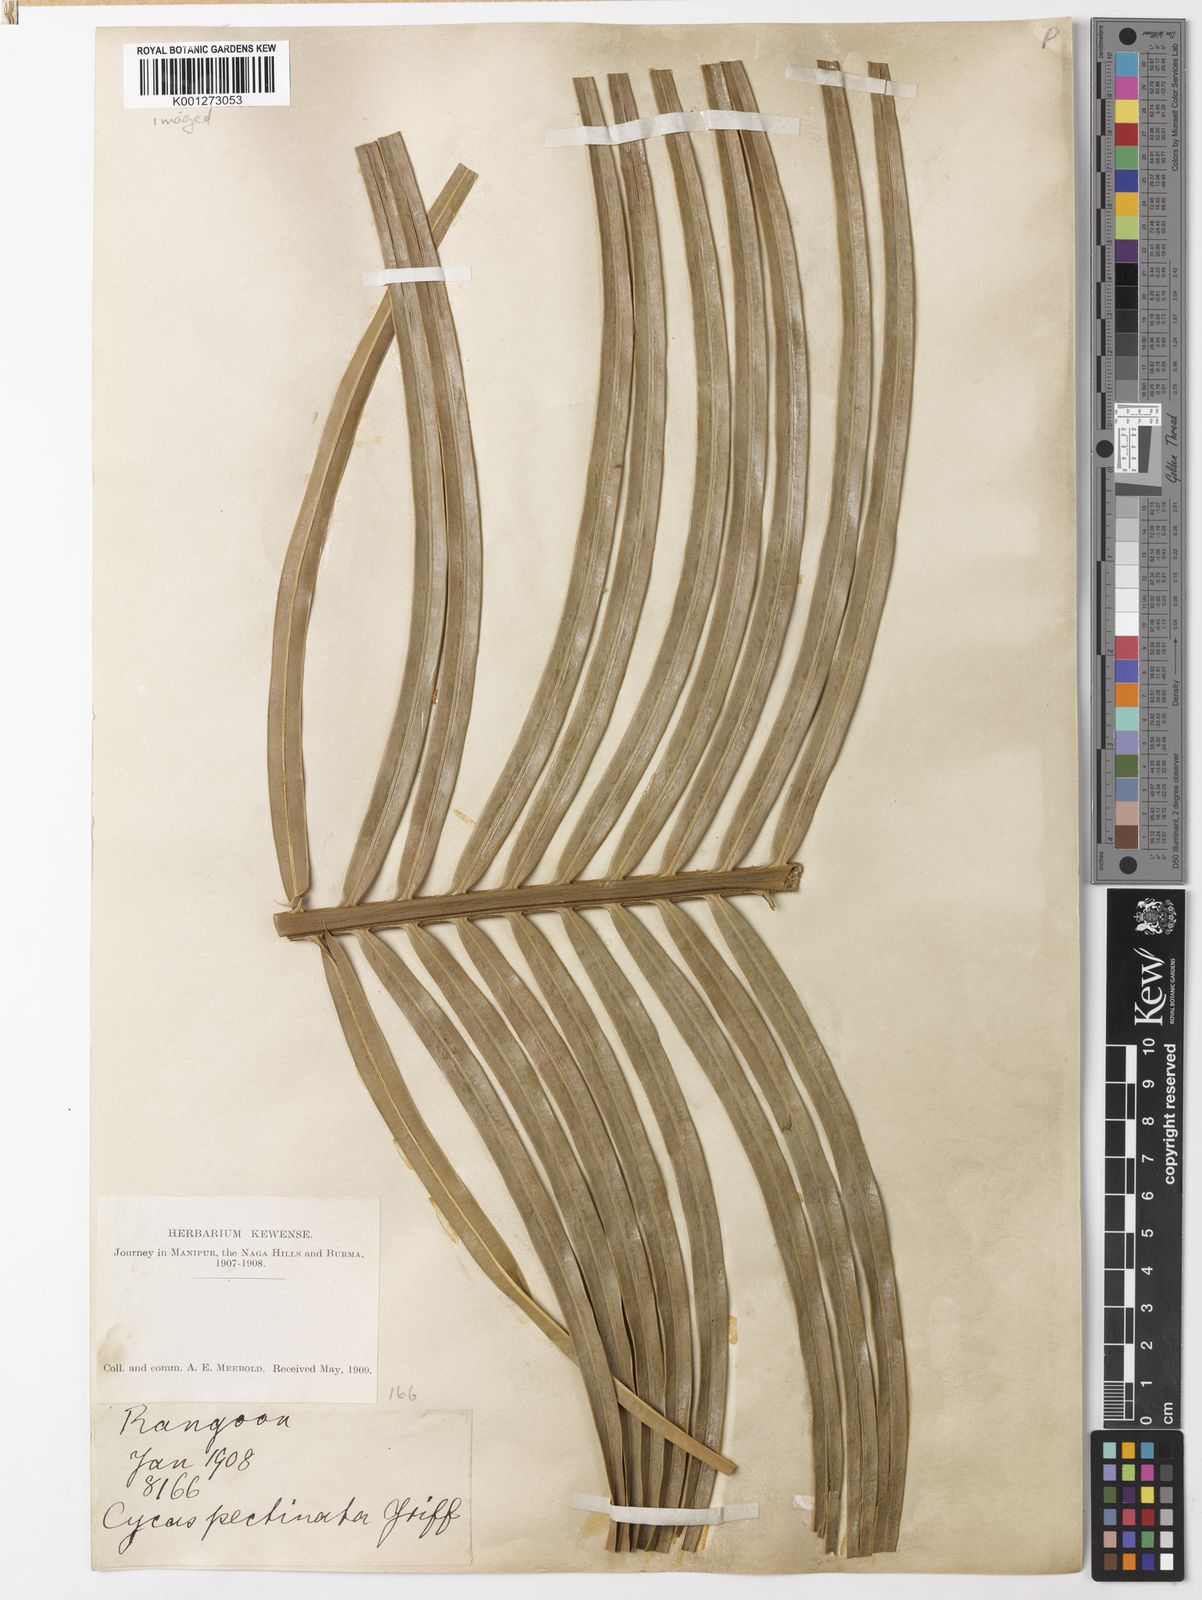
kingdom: Plantae
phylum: Tracheophyta
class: Cycadopsida
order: Cycadales
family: Cycadaceae
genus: Cycas
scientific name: Cycas pectinata
